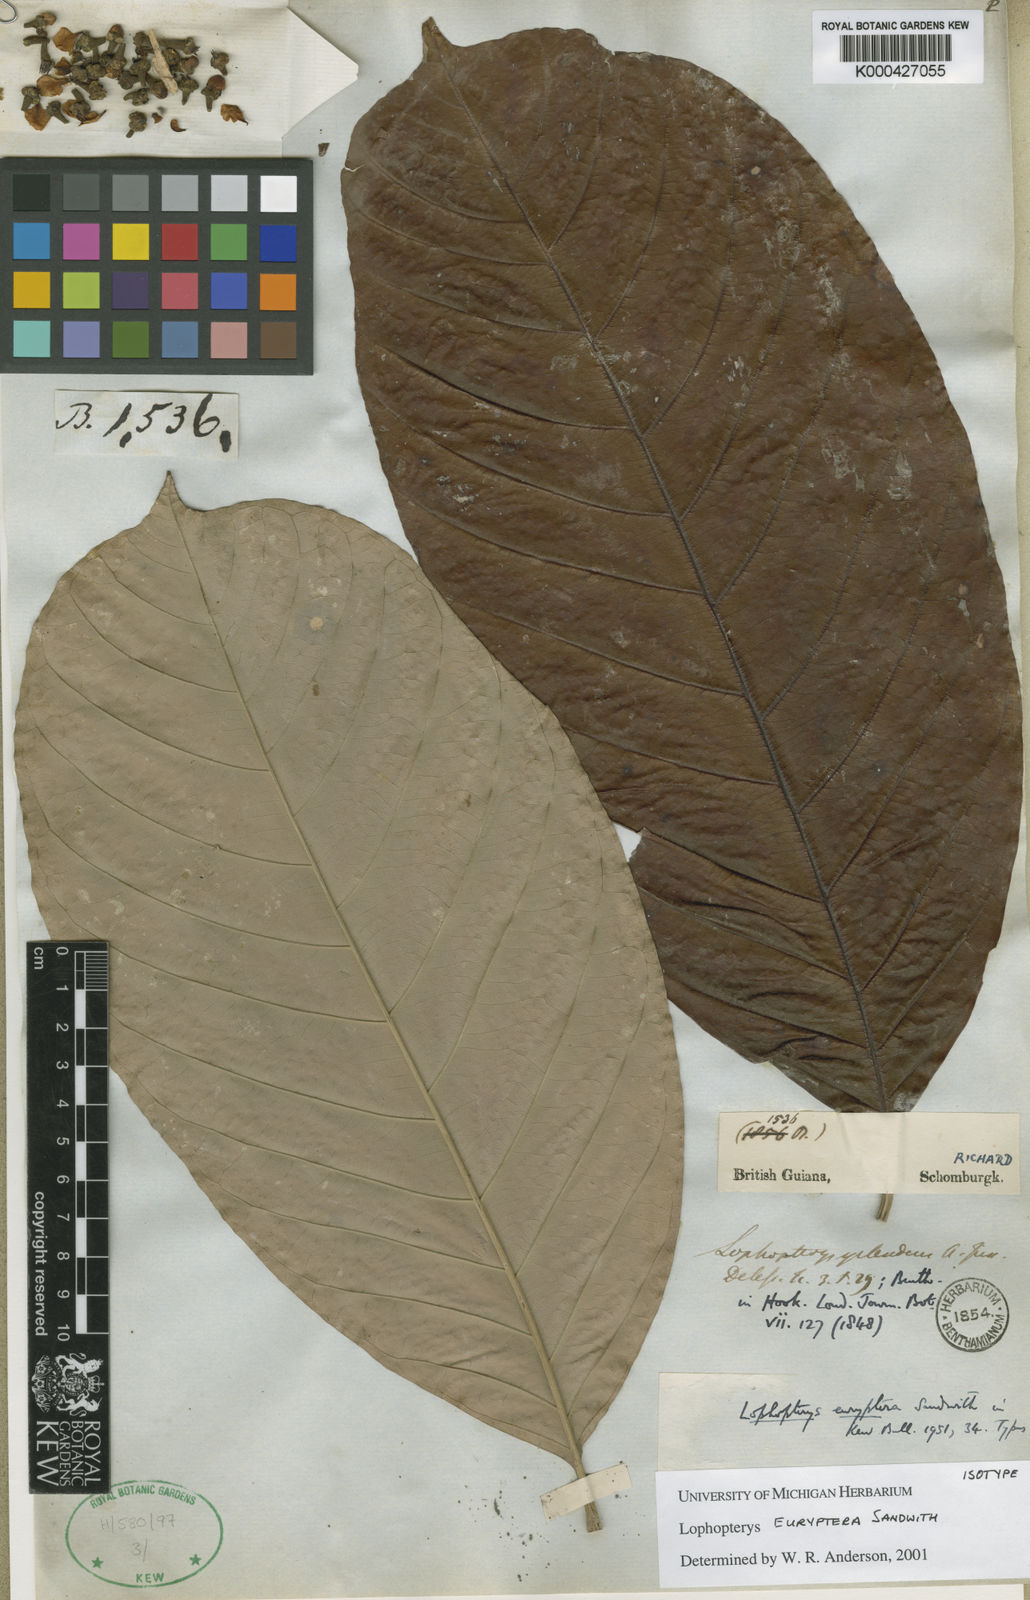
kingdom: Plantae
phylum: Tracheophyta
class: Magnoliopsida
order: Malpighiales
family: Malpighiaceae
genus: Lophopterys
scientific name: Lophopterys euryptera
